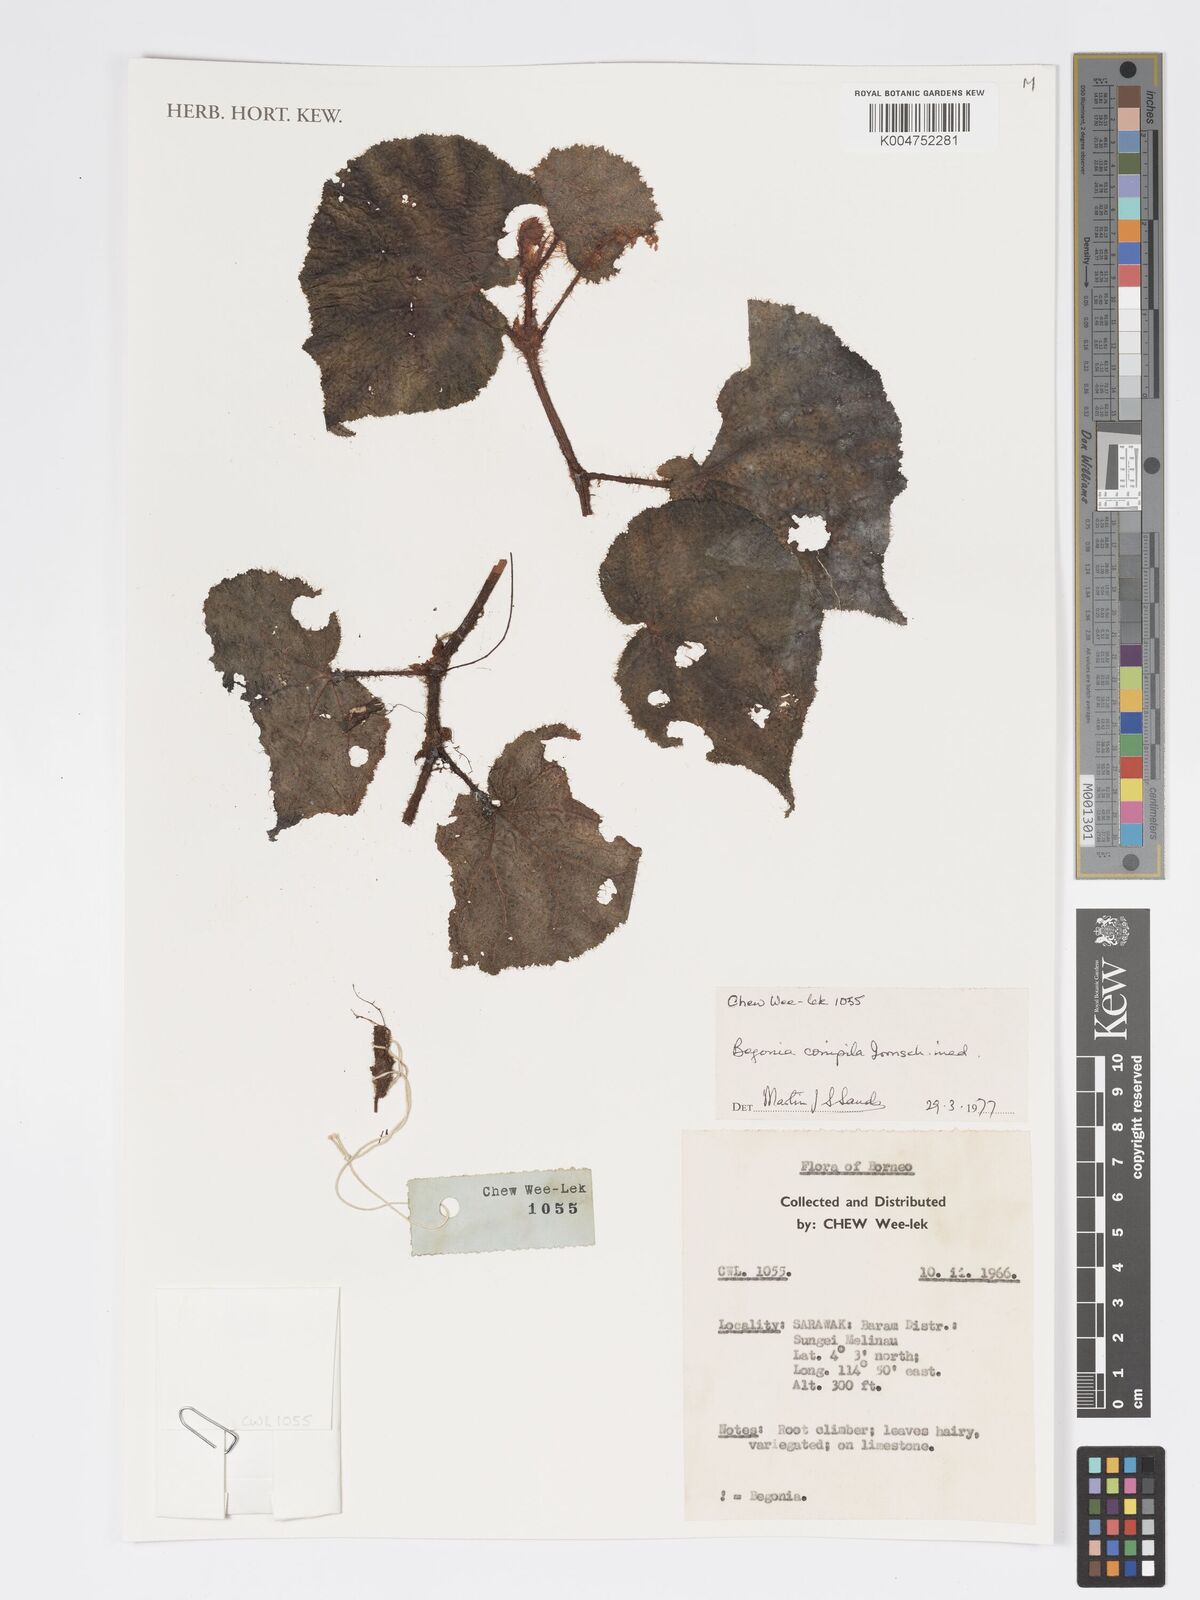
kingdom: Plantae
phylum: Tracheophyta
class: Magnoliopsida
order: Cucurbitales
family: Begoniaceae
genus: Begonia
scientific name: Begonia conipila
